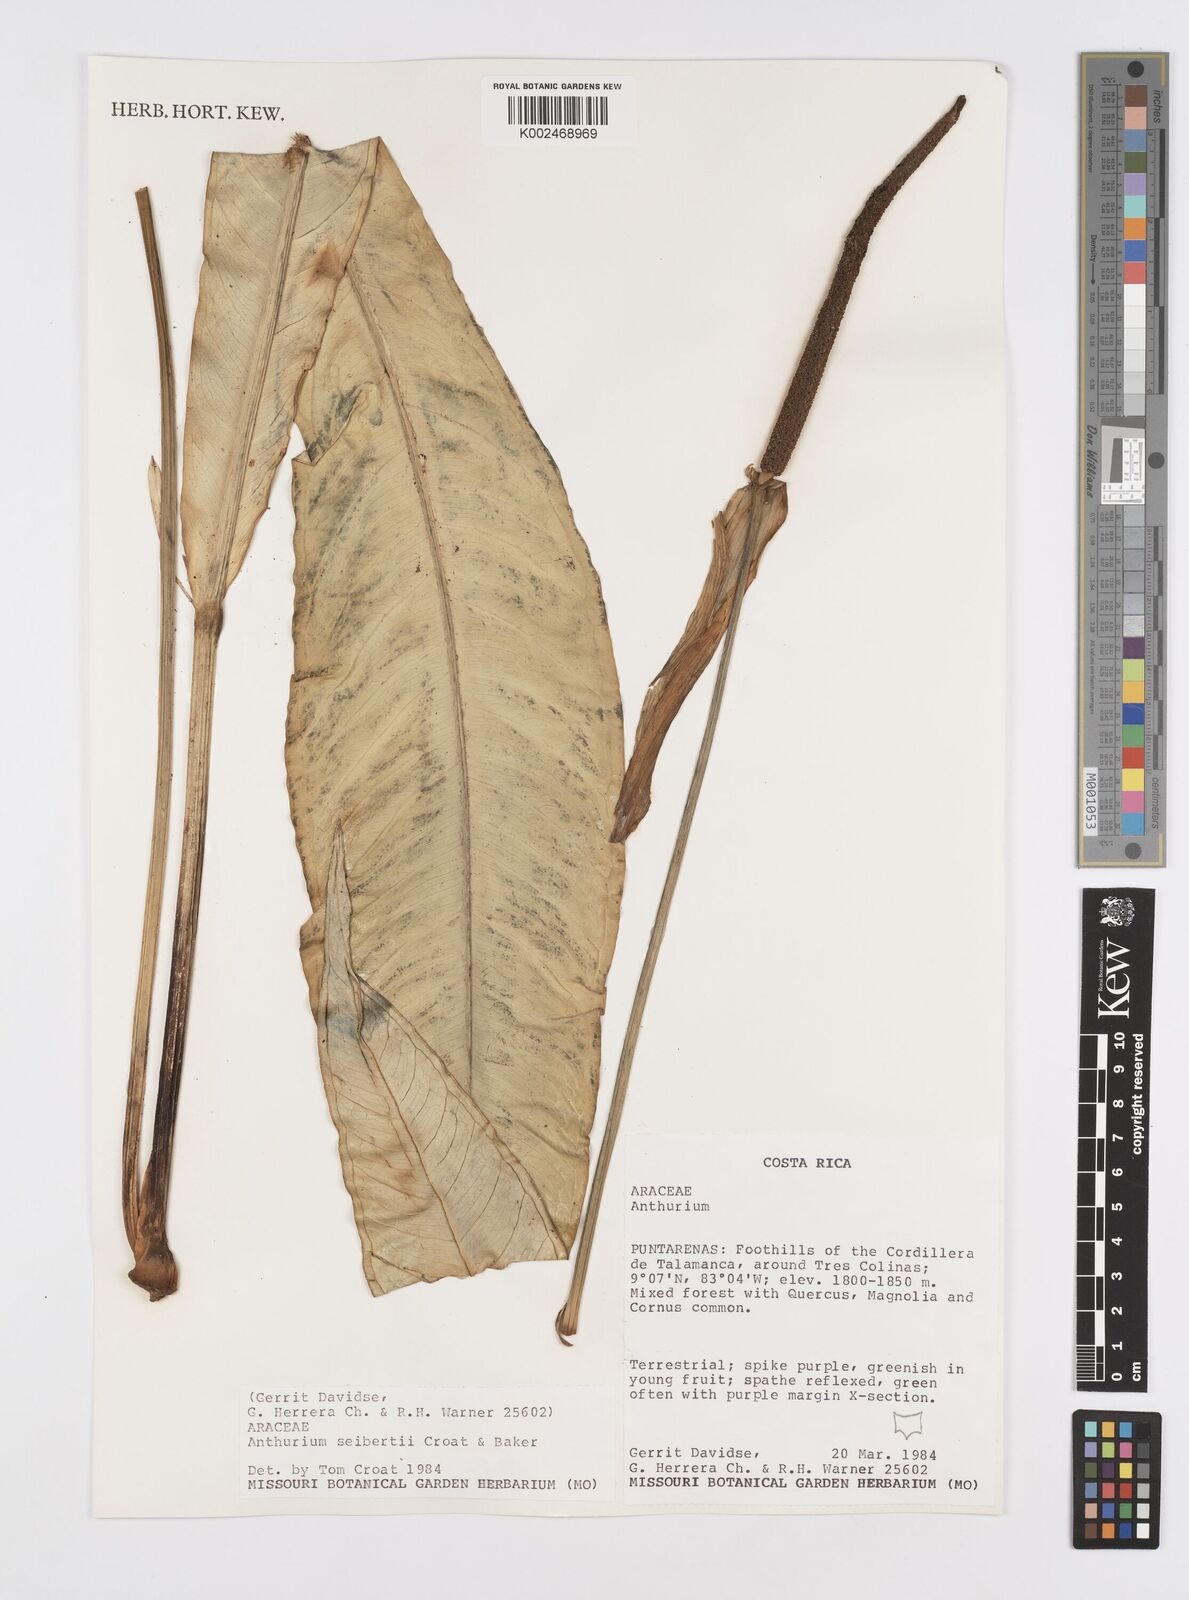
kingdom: Plantae
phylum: Tracheophyta
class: Liliopsida
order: Alismatales
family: Araceae
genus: Anthurium
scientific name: Anthurium seibertii
